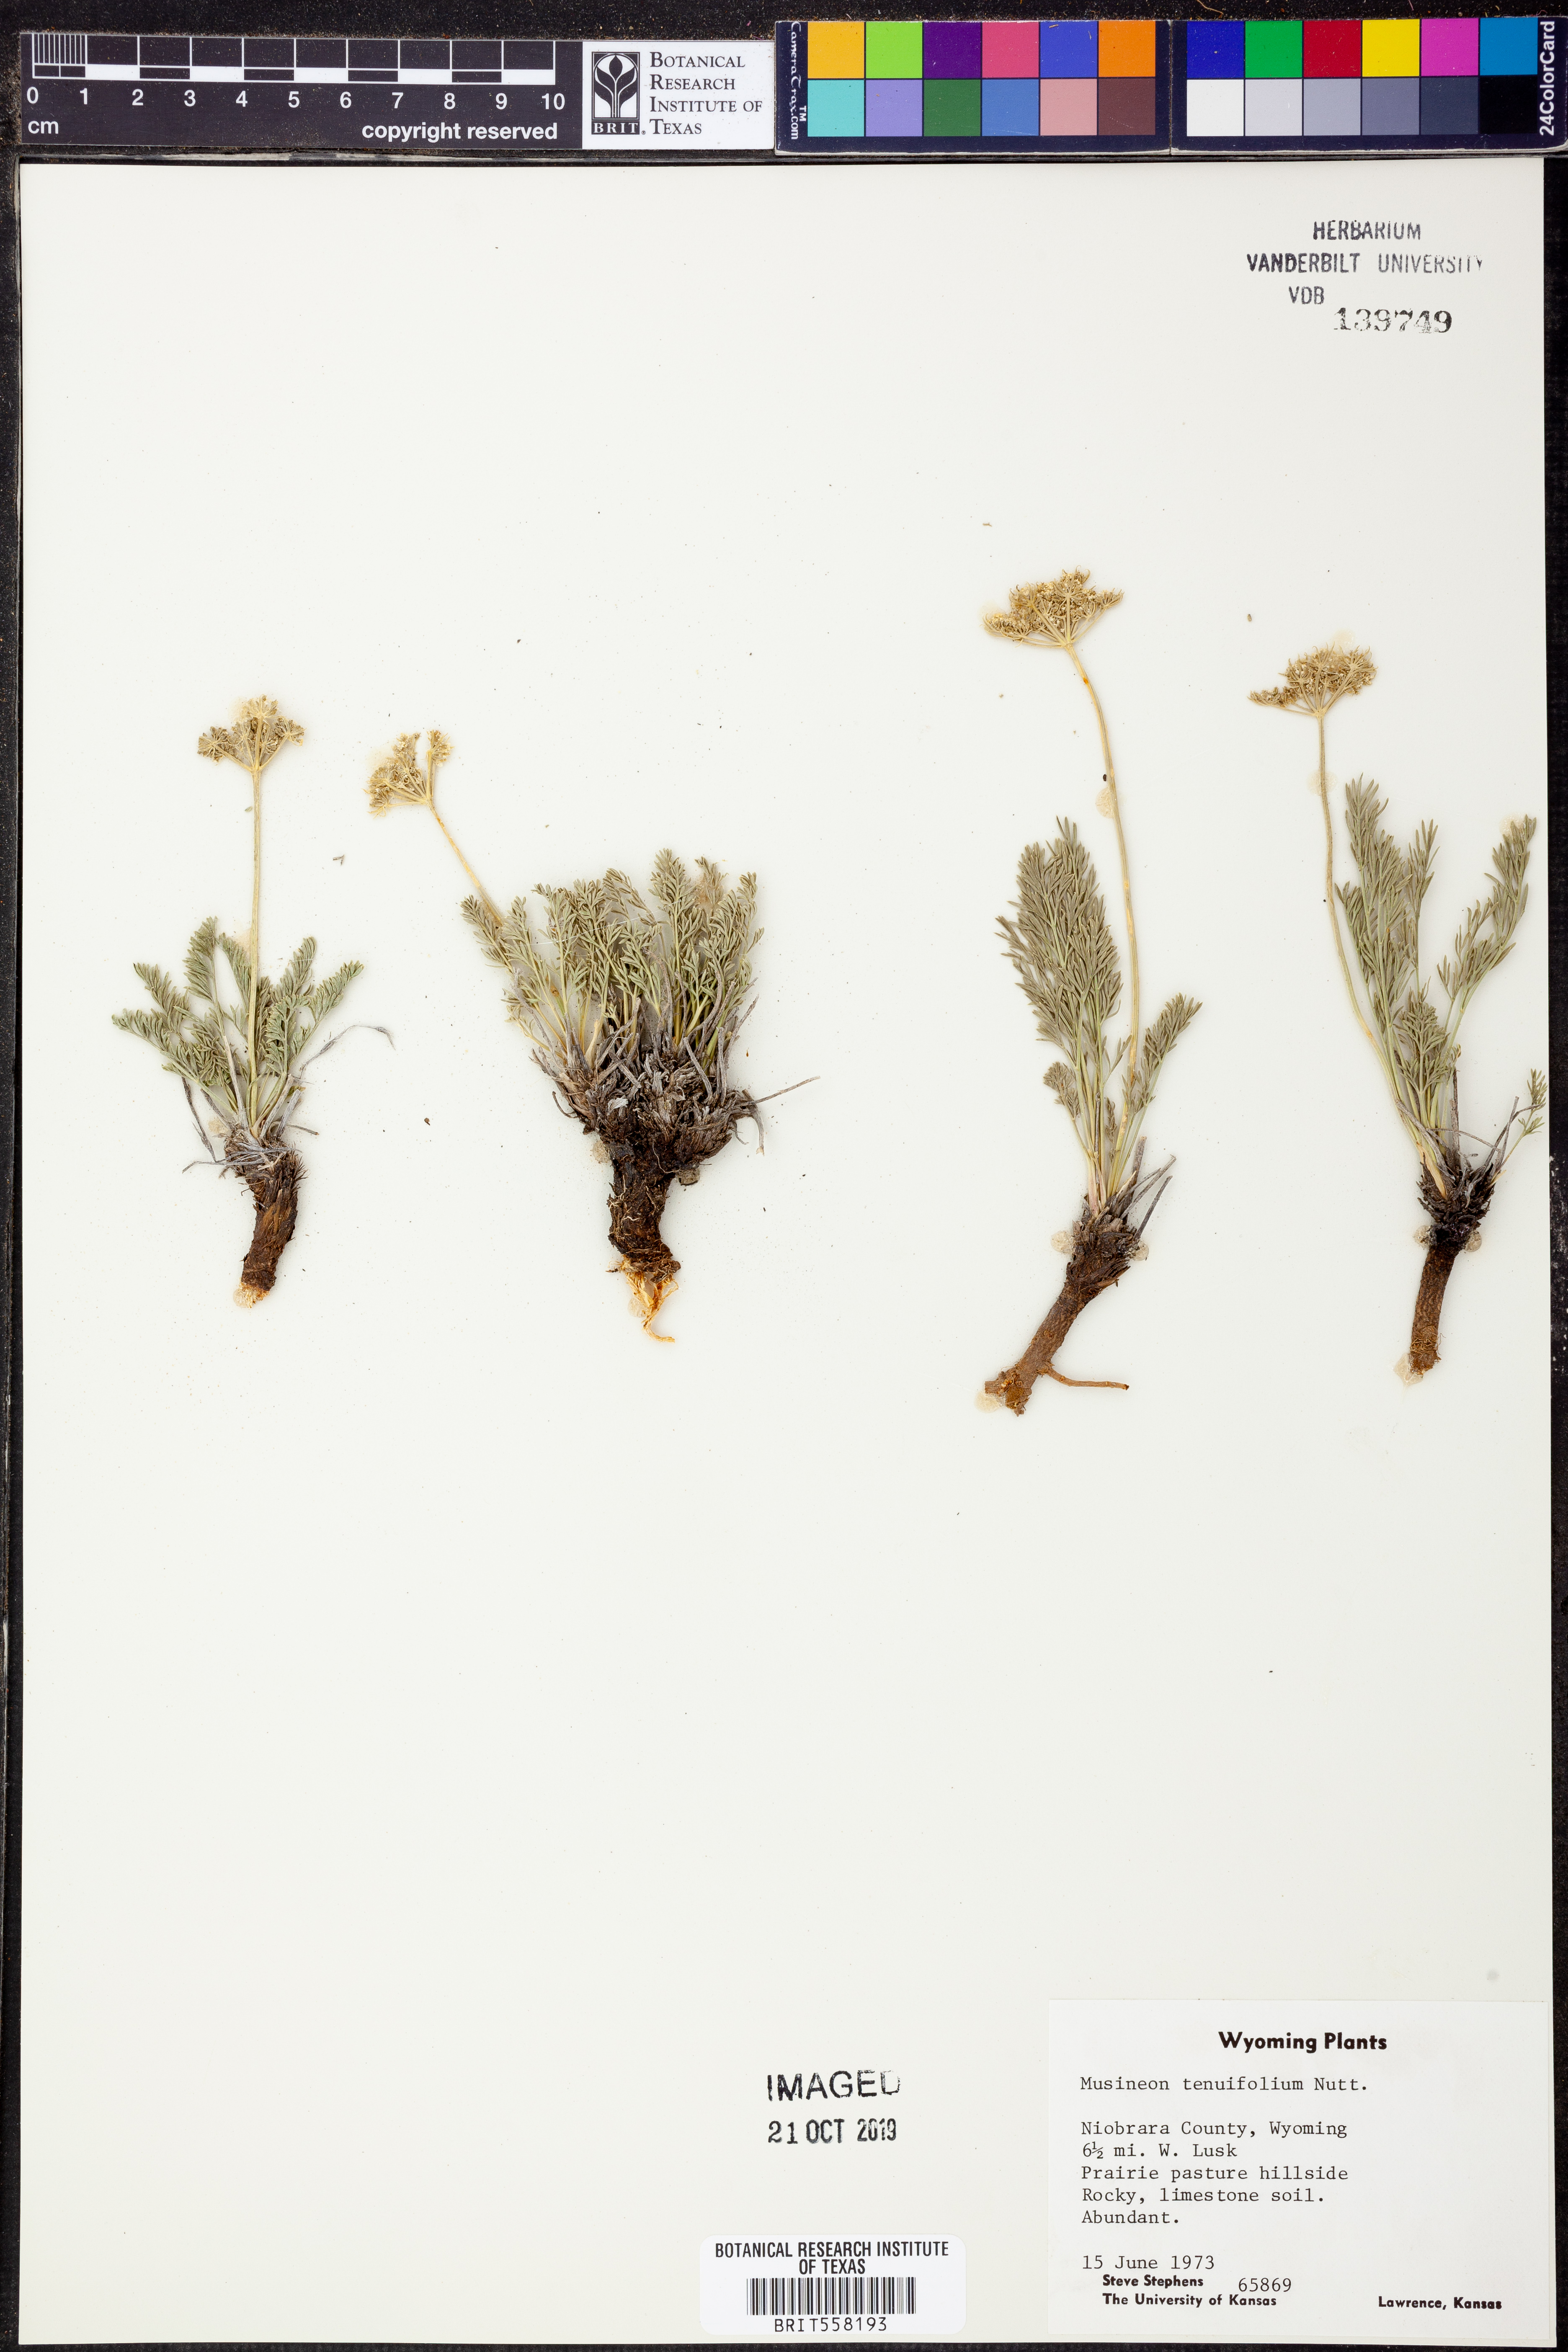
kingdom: Plantae
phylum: Tracheophyta
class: Magnoliopsida
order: Apiales
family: Apiaceae
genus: Musineon
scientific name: Musineon tenuifolium
